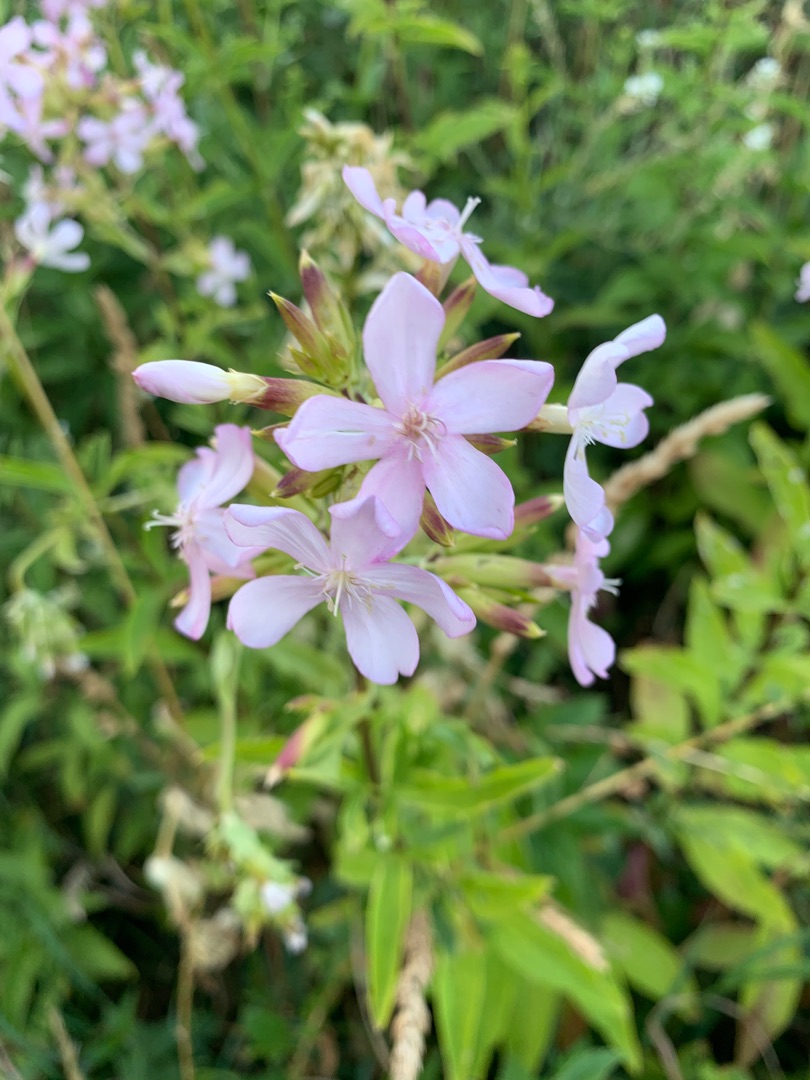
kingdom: Plantae
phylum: Tracheophyta
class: Magnoliopsida
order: Caryophyllales
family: Caryophyllaceae
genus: Saponaria
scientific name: Saponaria officinalis
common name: Sæbeurt
